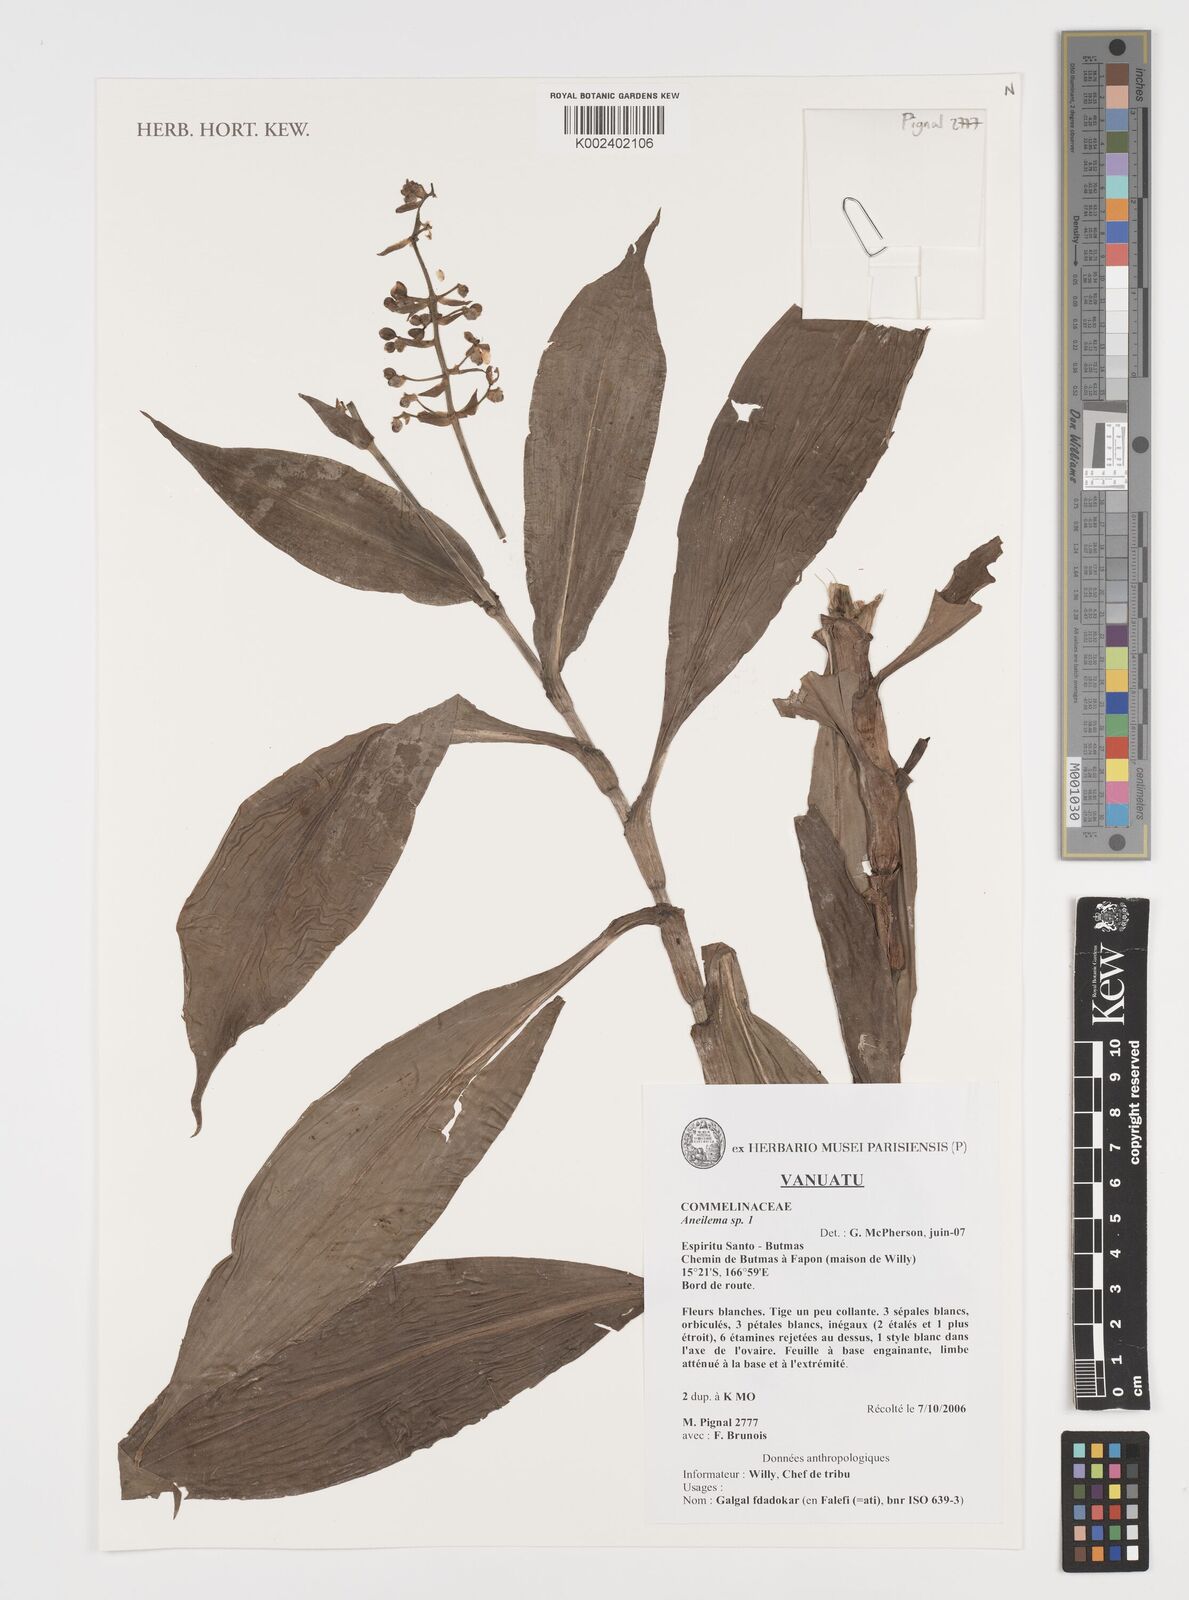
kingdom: Plantae
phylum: Tracheophyta
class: Liliopsida
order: Commelinales
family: Commelinaceae
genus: Aneilema
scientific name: Aneilema
